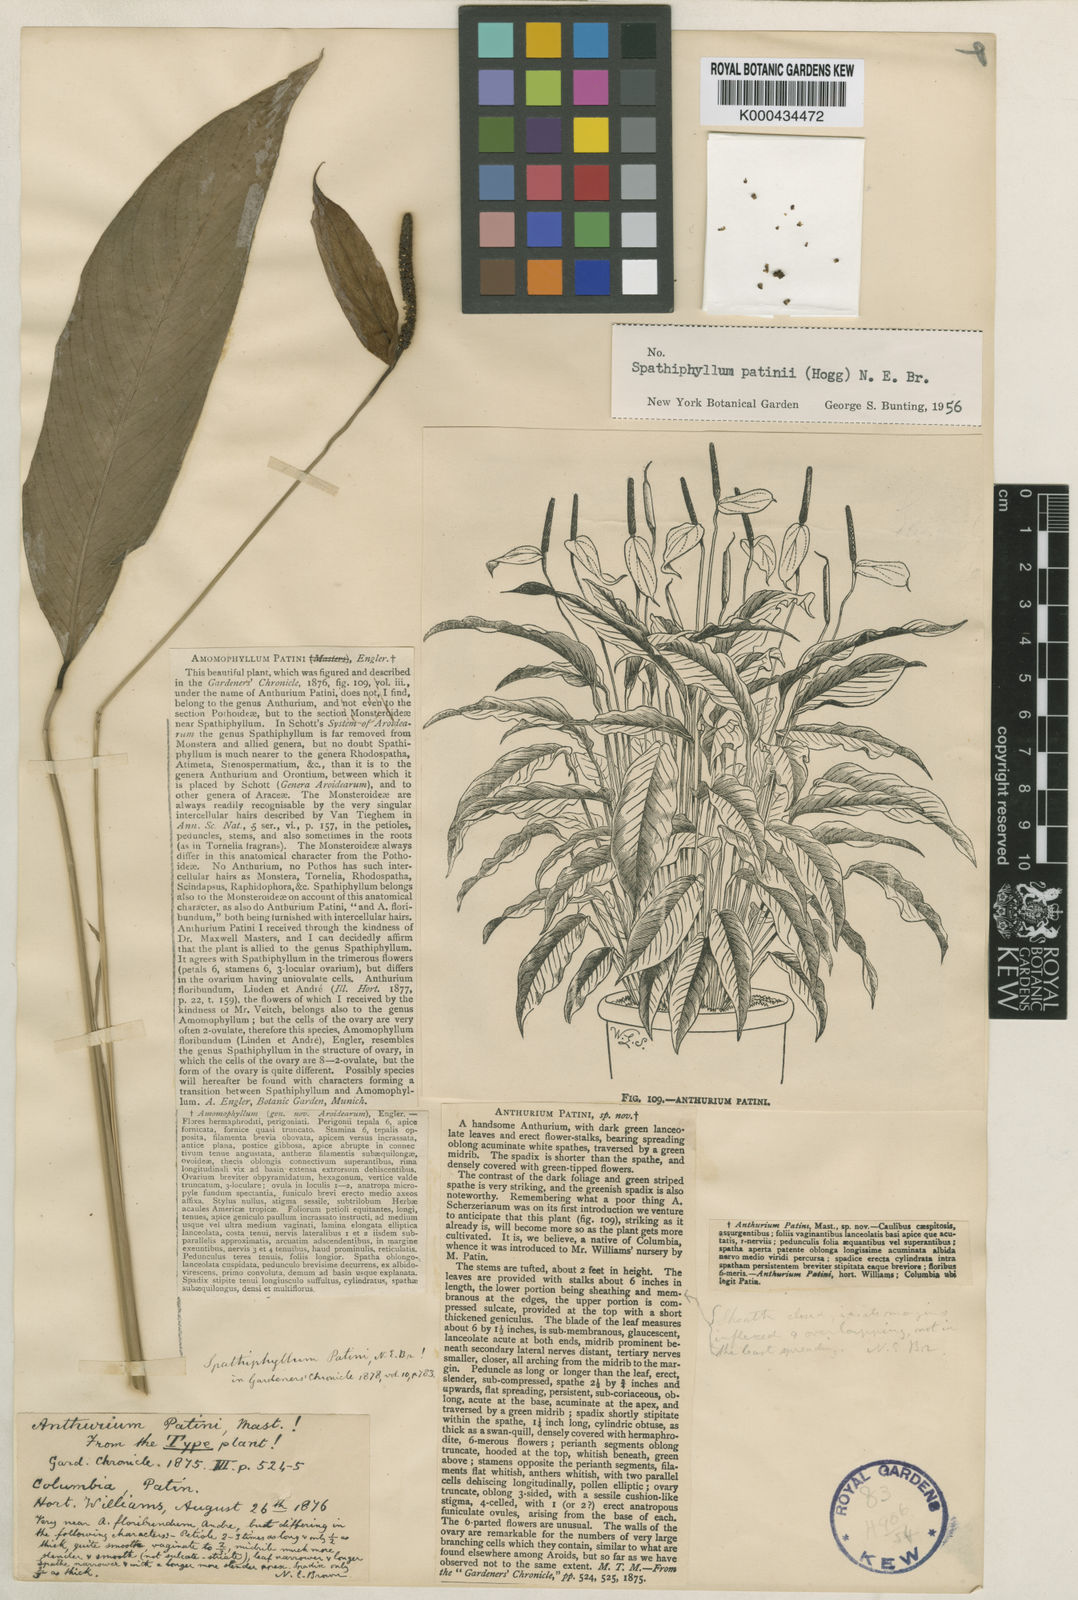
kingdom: Plantae
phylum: Tracheophyta
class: Liliopsida
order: Alismatales
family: Araceae
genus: Spathiphyllum
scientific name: Spathiphyllum patinii
